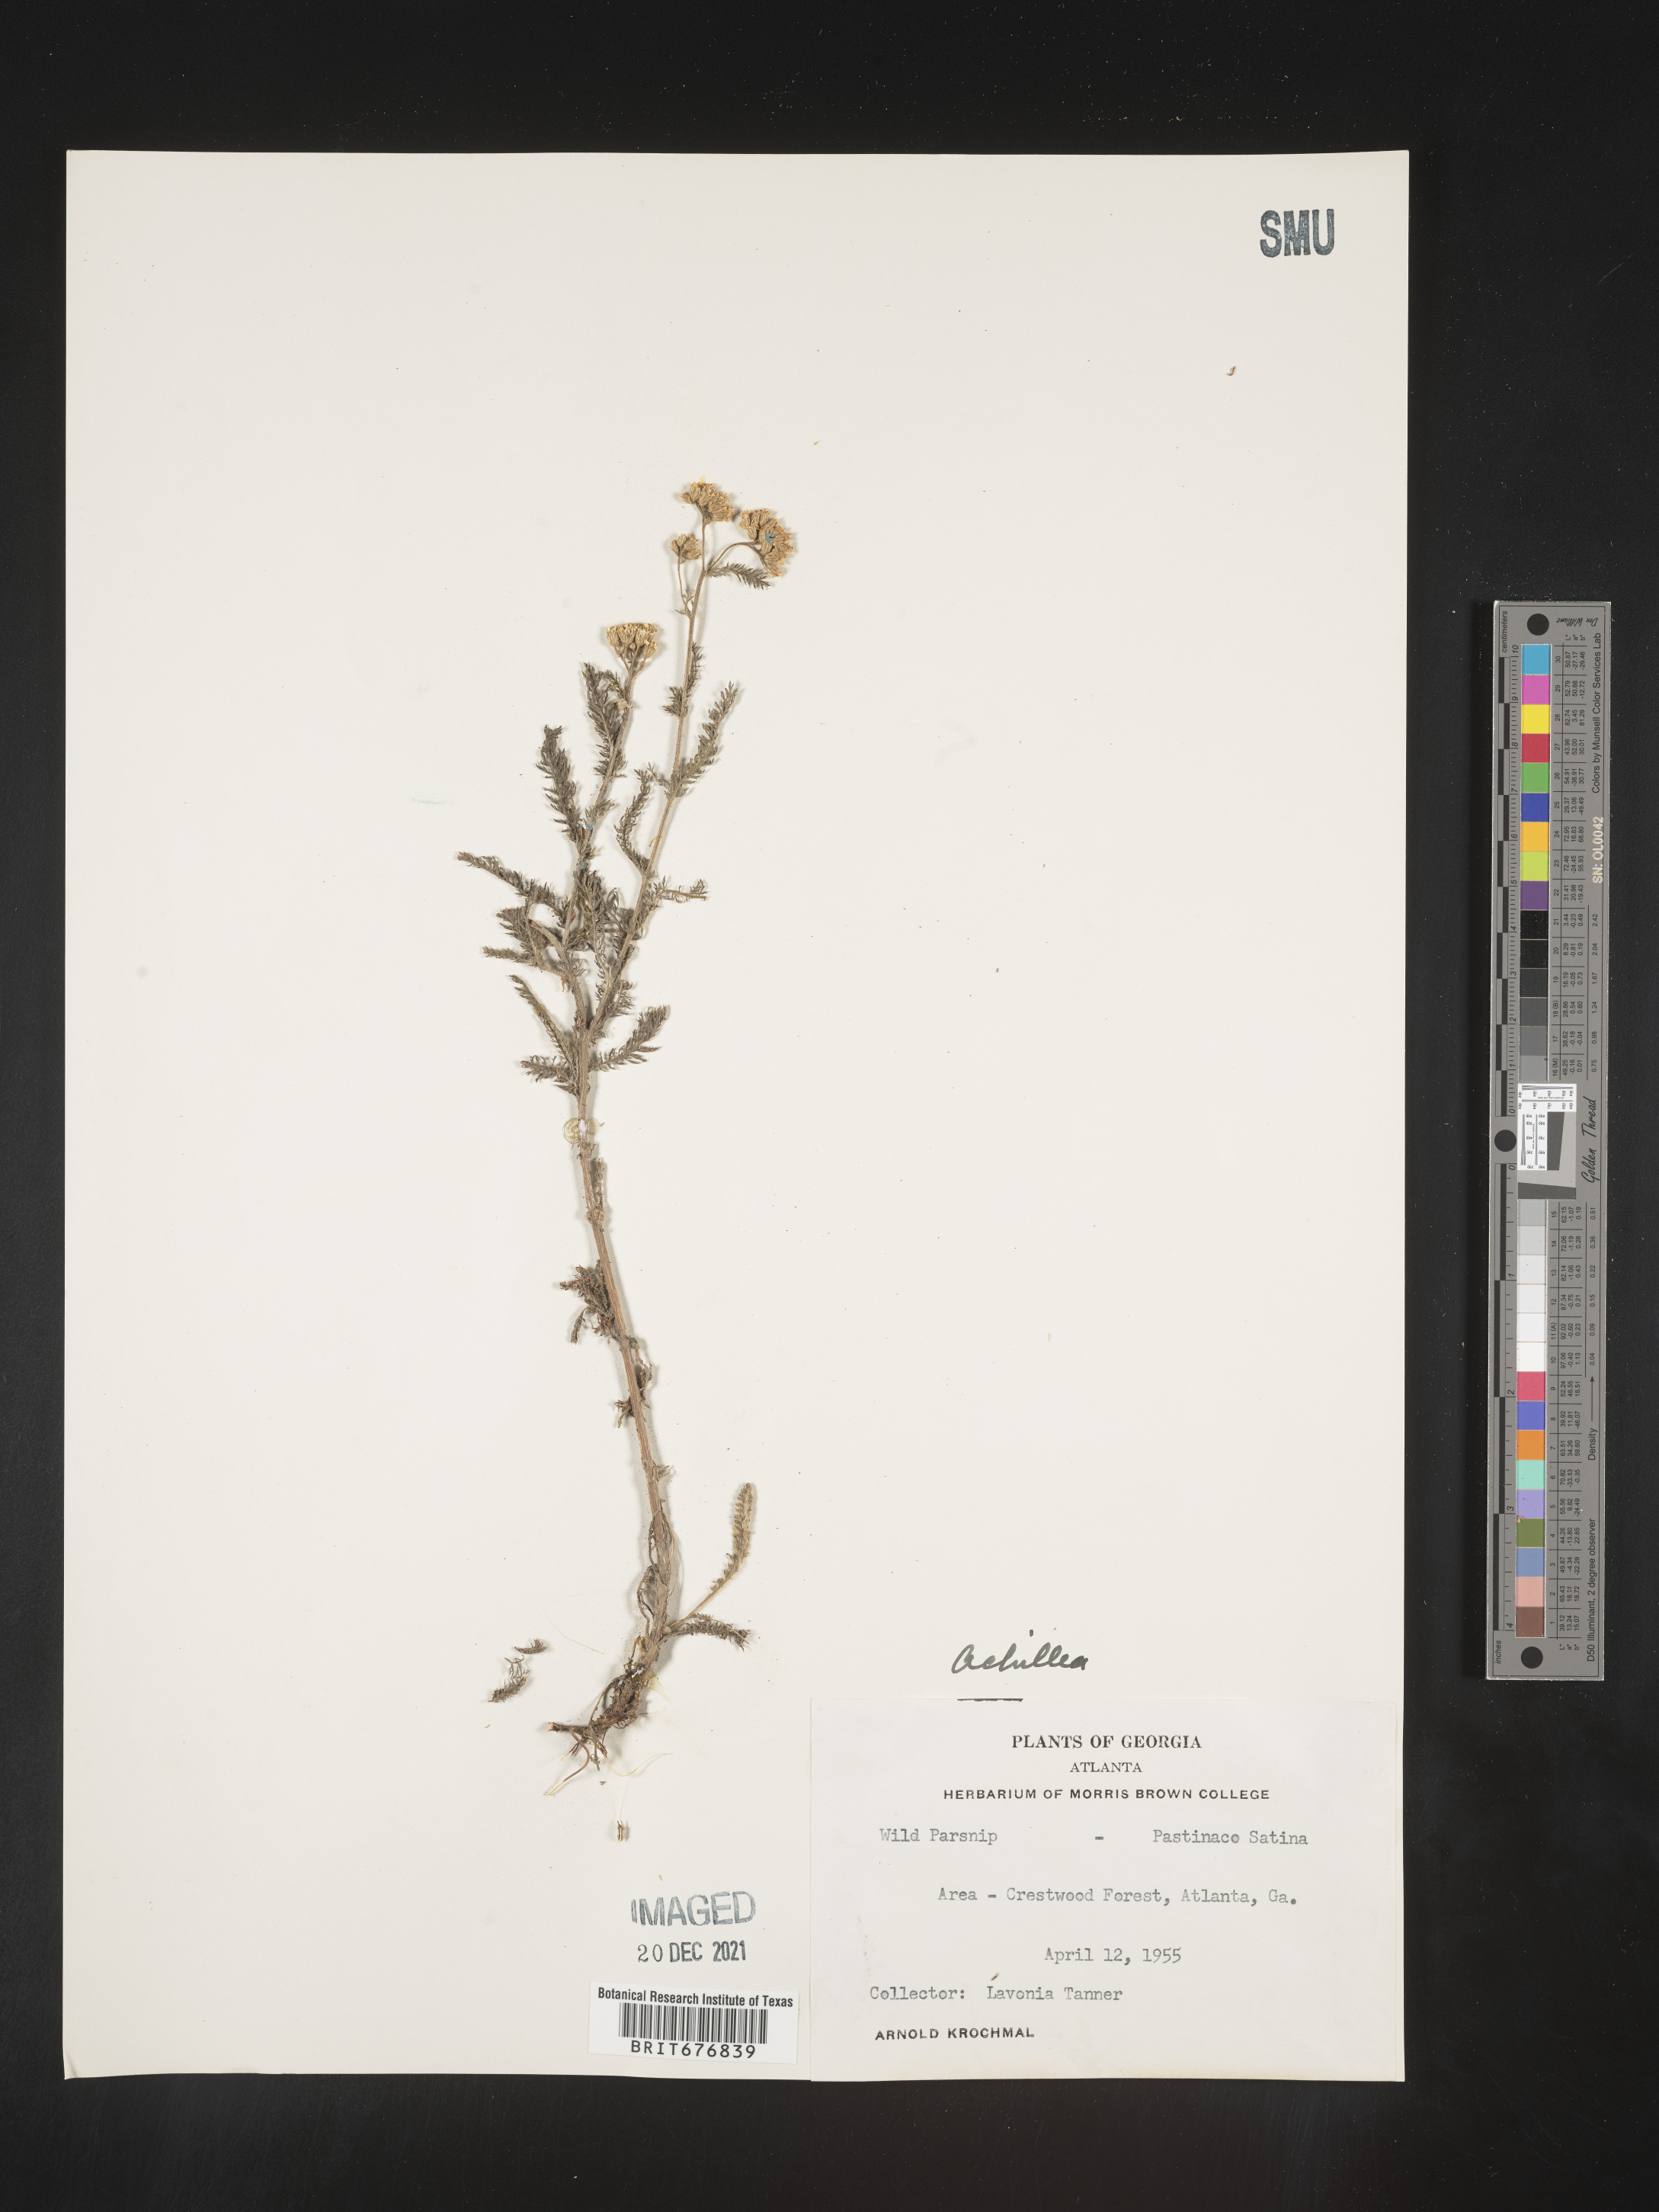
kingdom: Plantae
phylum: Tracheophyta
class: Magnoliopsida
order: Asterales
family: Asteraceae
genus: Achillea
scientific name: Achillea millefolium
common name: Yarrow
